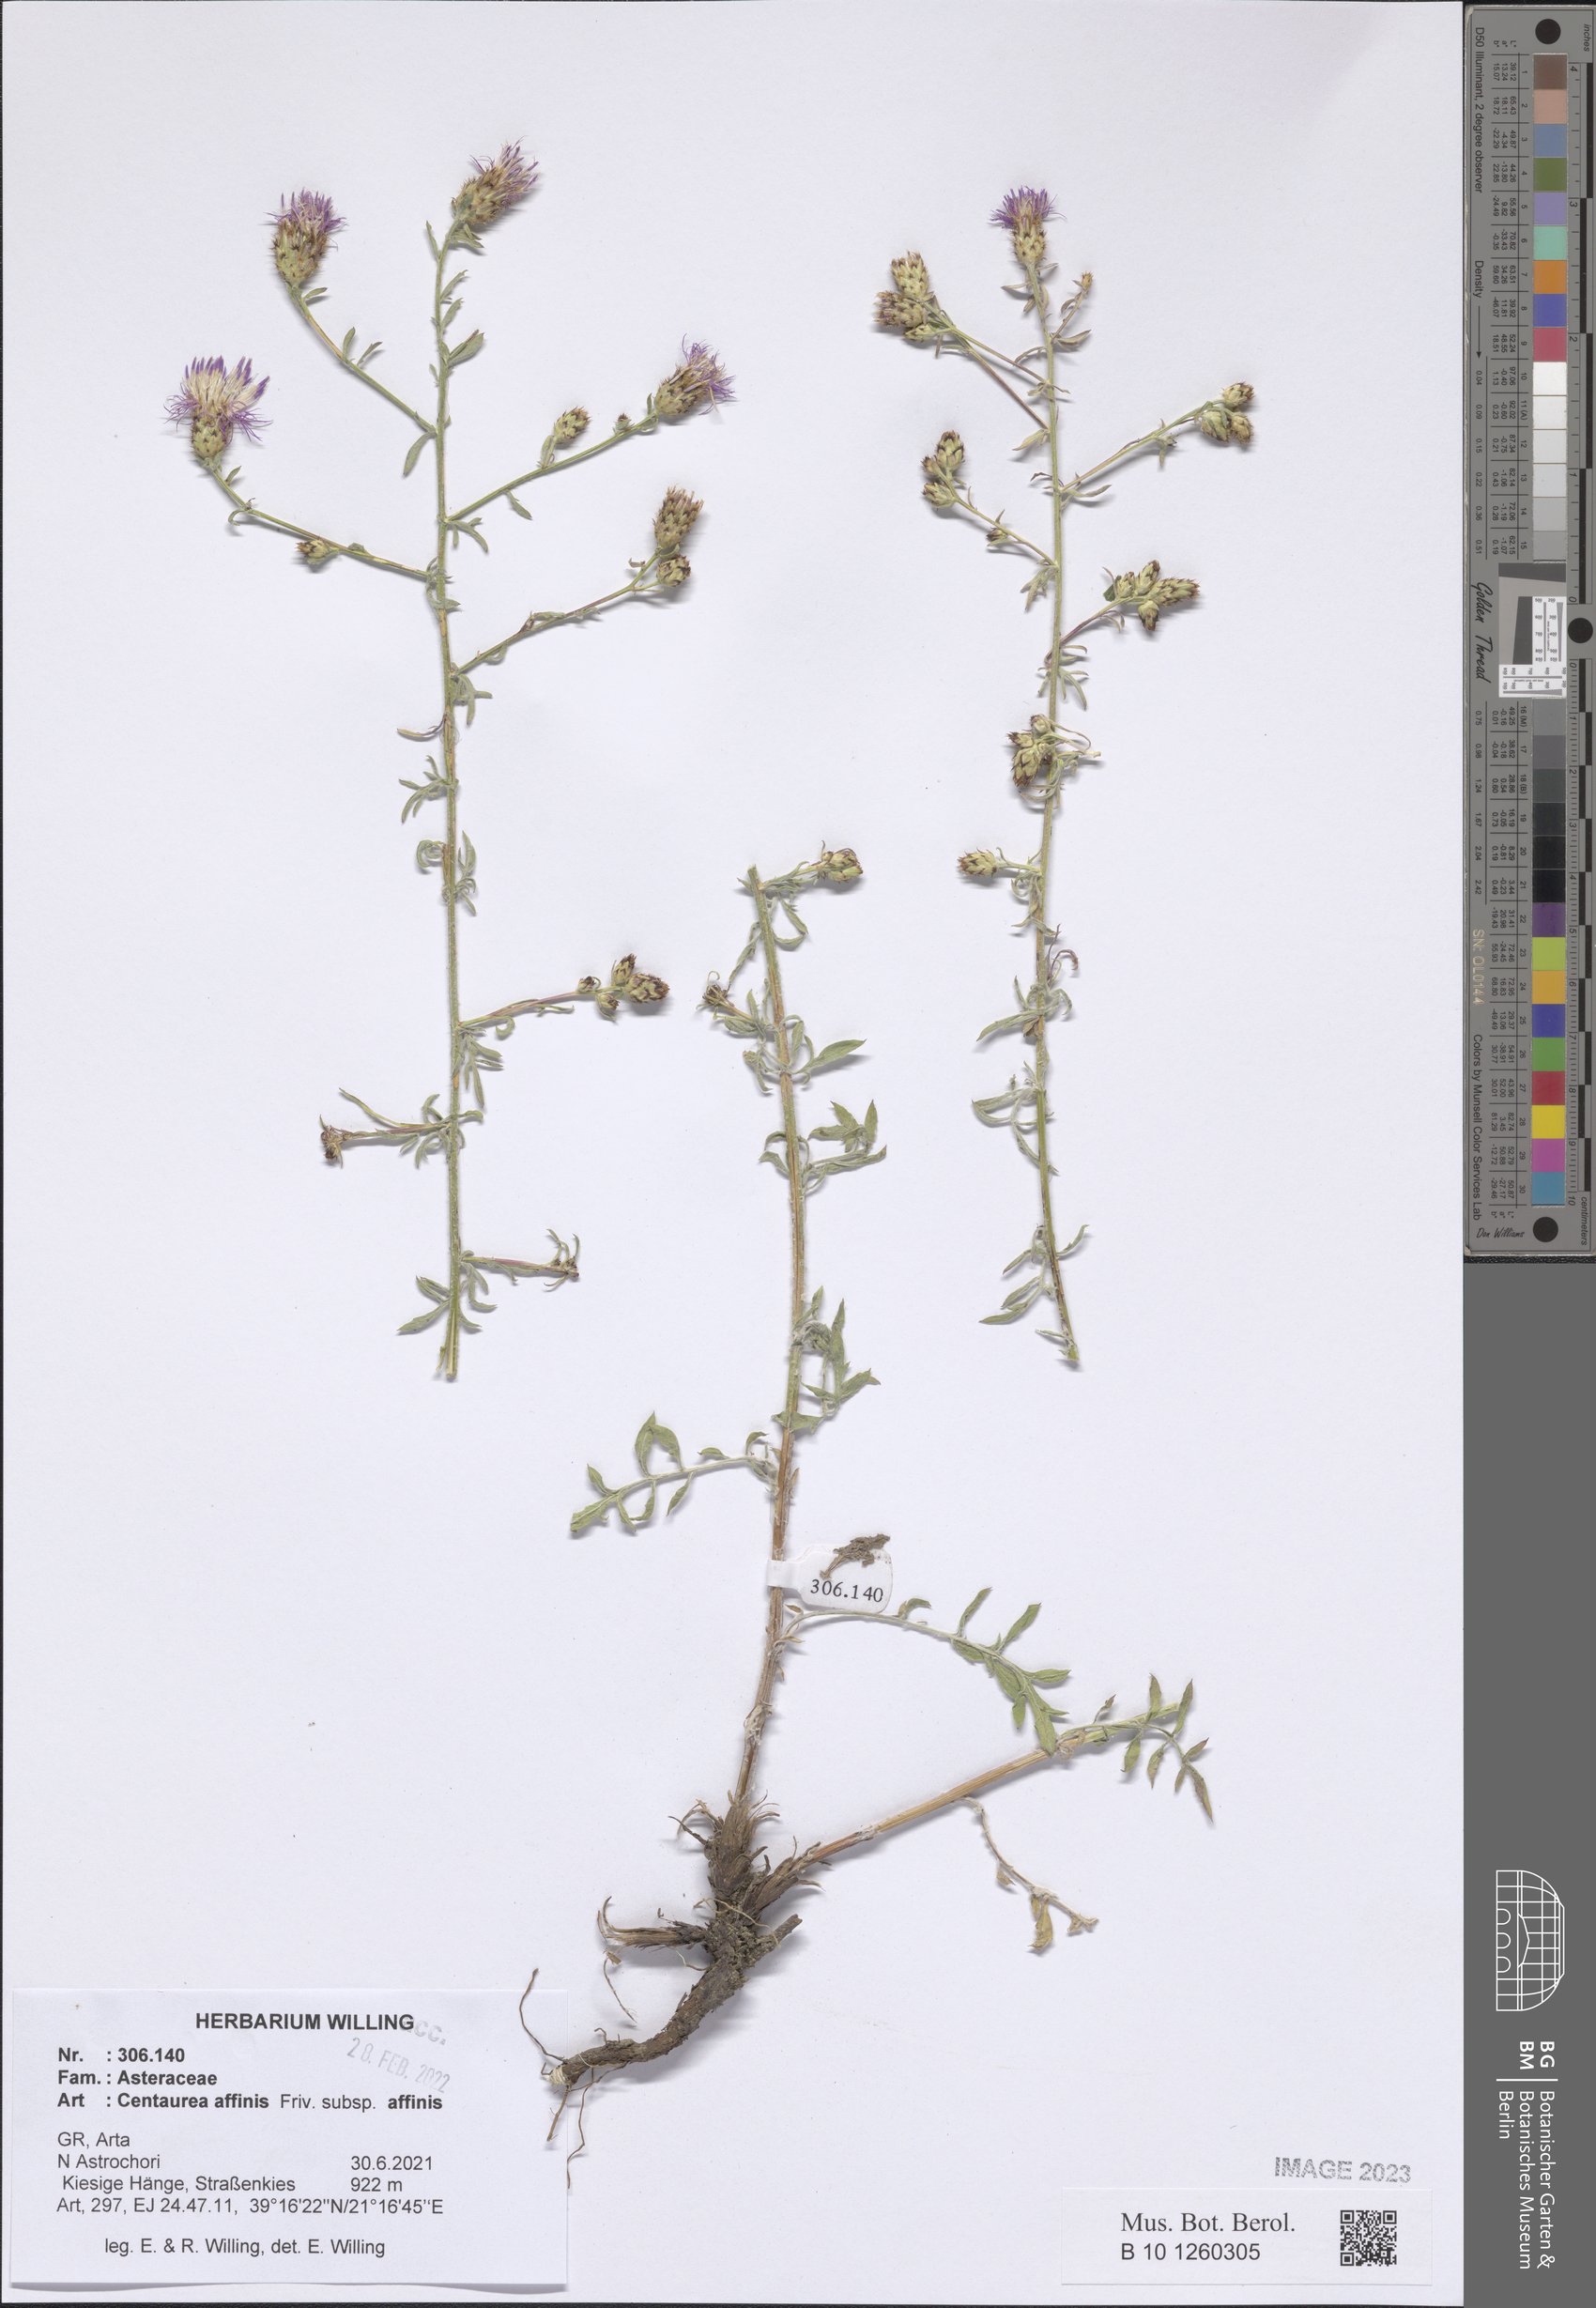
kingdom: Plantae
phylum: Tracheophyta
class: Magnoliopsida
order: Asterales
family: Asteraceae
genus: Centaurea
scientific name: Centaurea affinis
